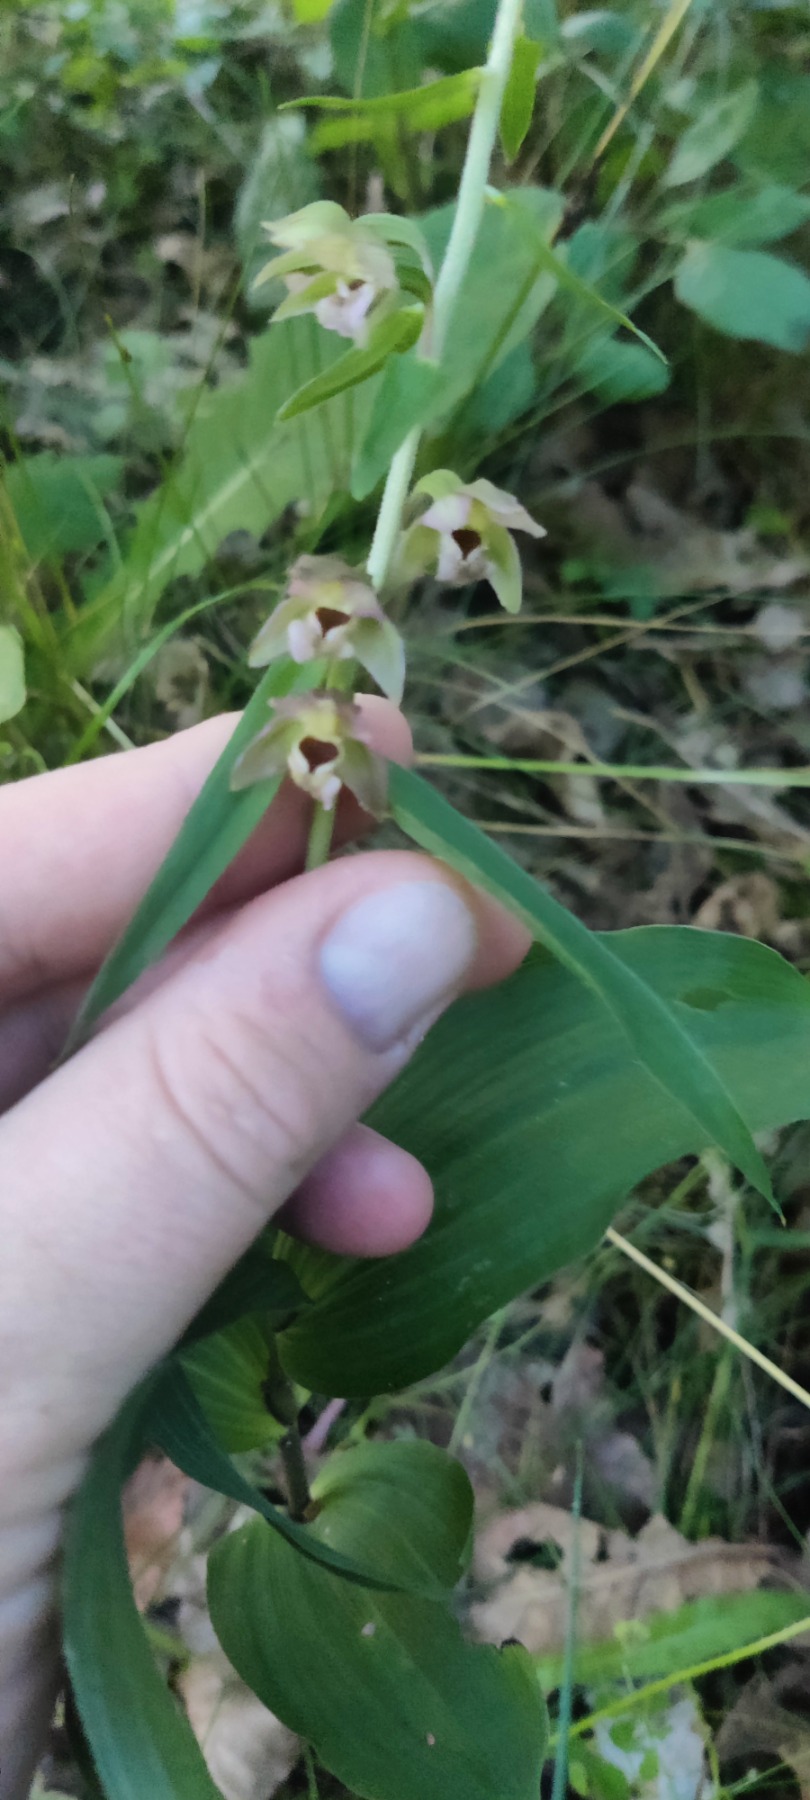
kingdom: Plantae
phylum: Tracheophyta
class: Liliopsida
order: Asparagales
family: Orchidaceae
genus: Epipactis
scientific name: Epipactis helleborine
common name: Skov-hullæbe
